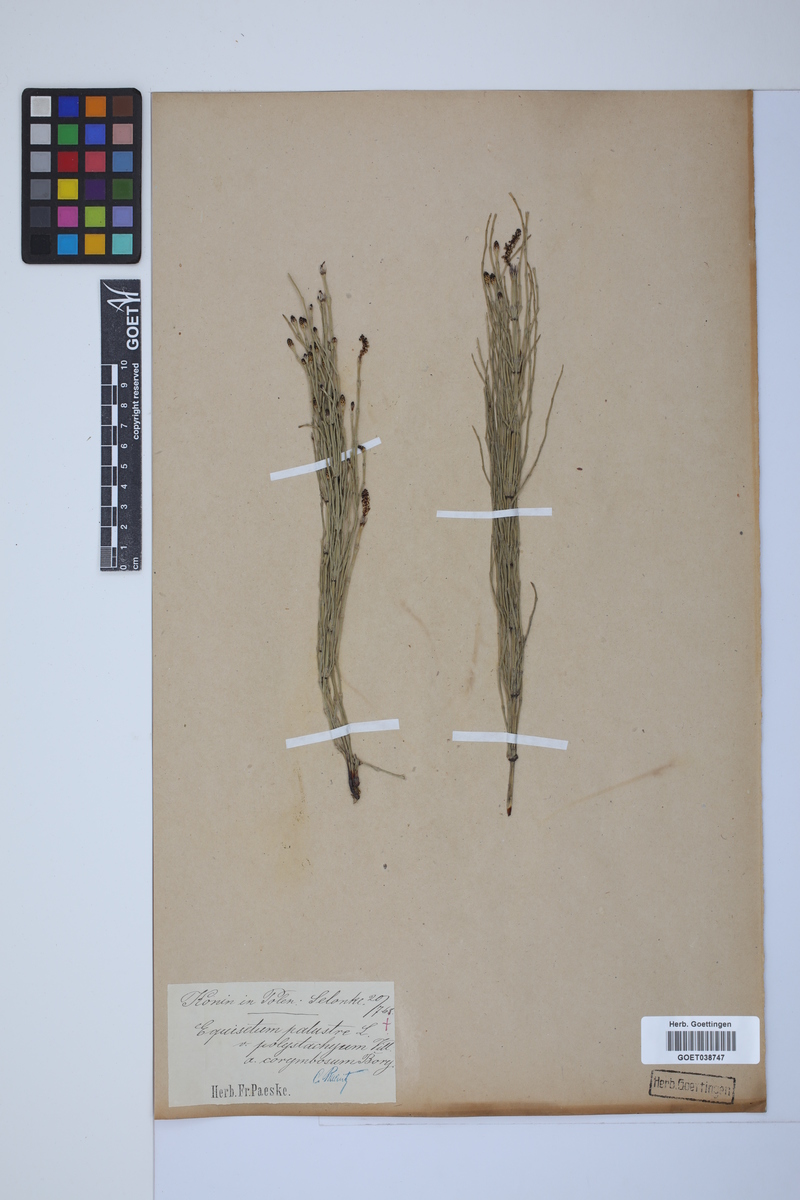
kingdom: Plantae
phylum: Tracheophyta
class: Polypodiopsida
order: Equisetales
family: Equisetaceae
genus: Equisetum
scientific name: Equisetum palustre
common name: Marsh horsetail
